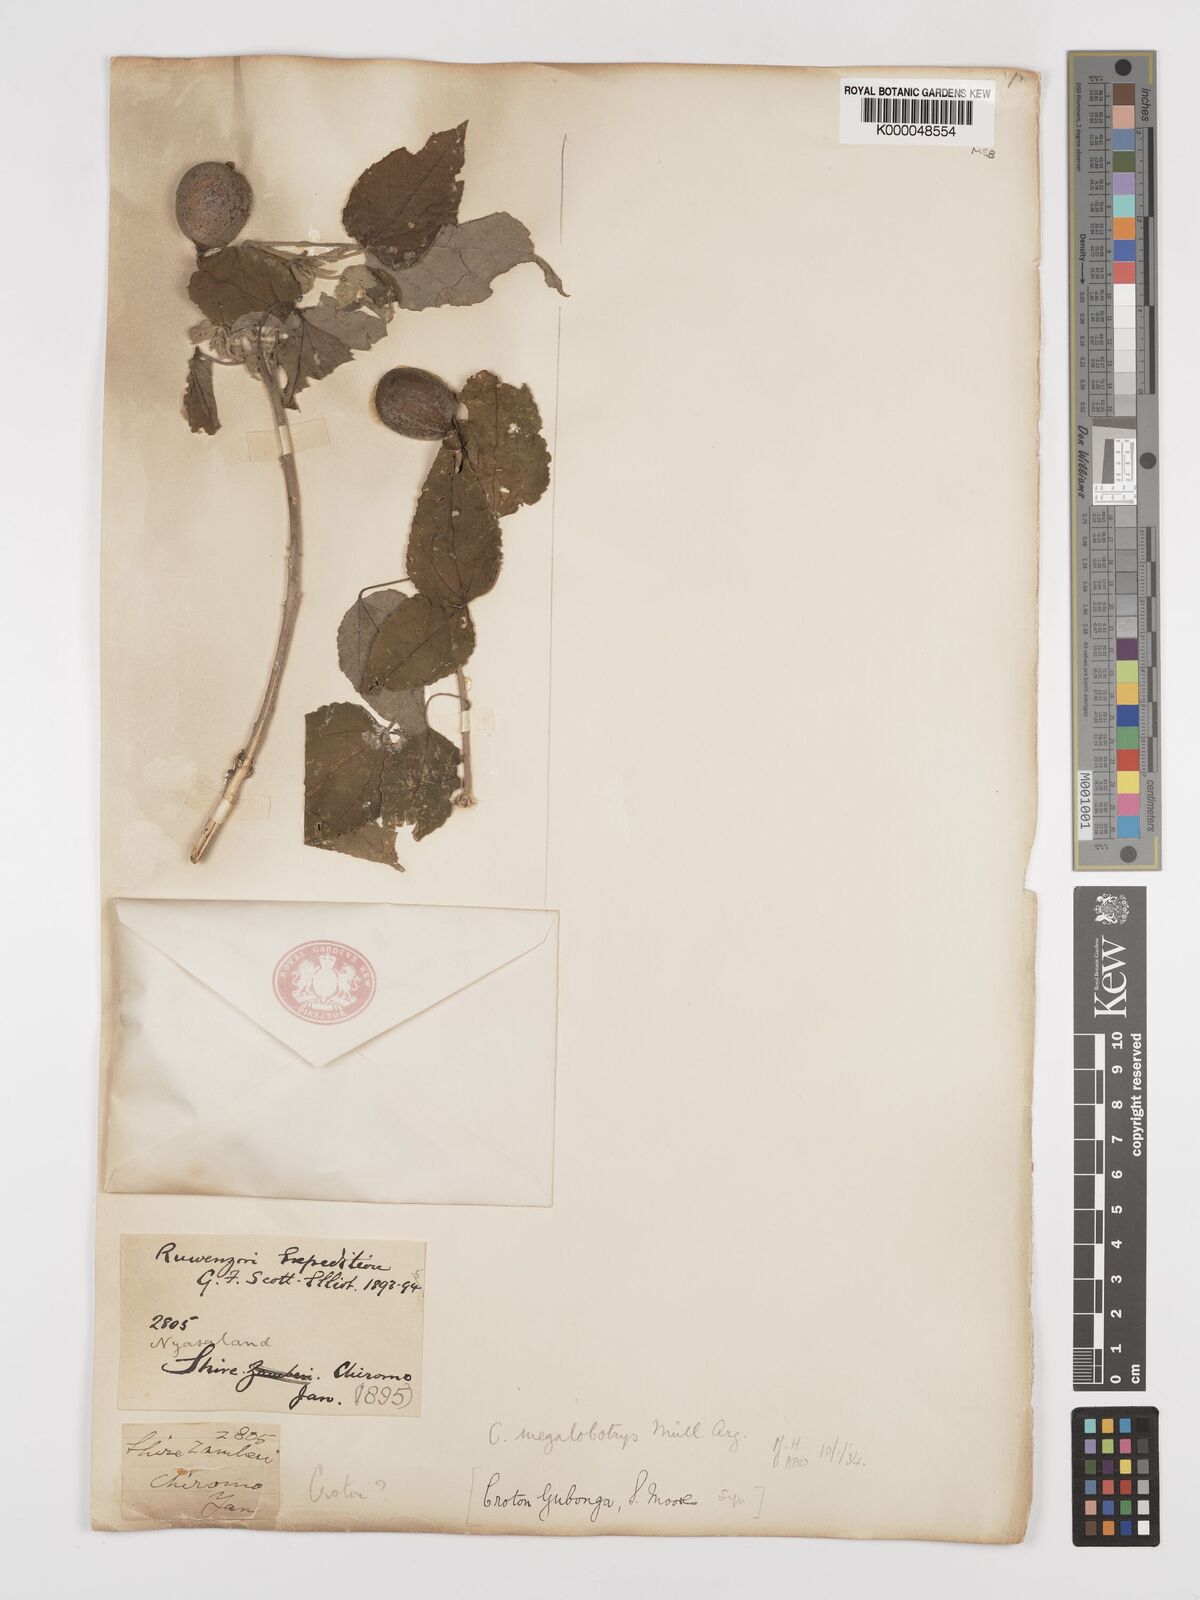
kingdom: Plantae
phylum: Tracheophyta
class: Magnoliopsida
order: Malpighiales
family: Euphorbiaceae
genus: Croton
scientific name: Croton
